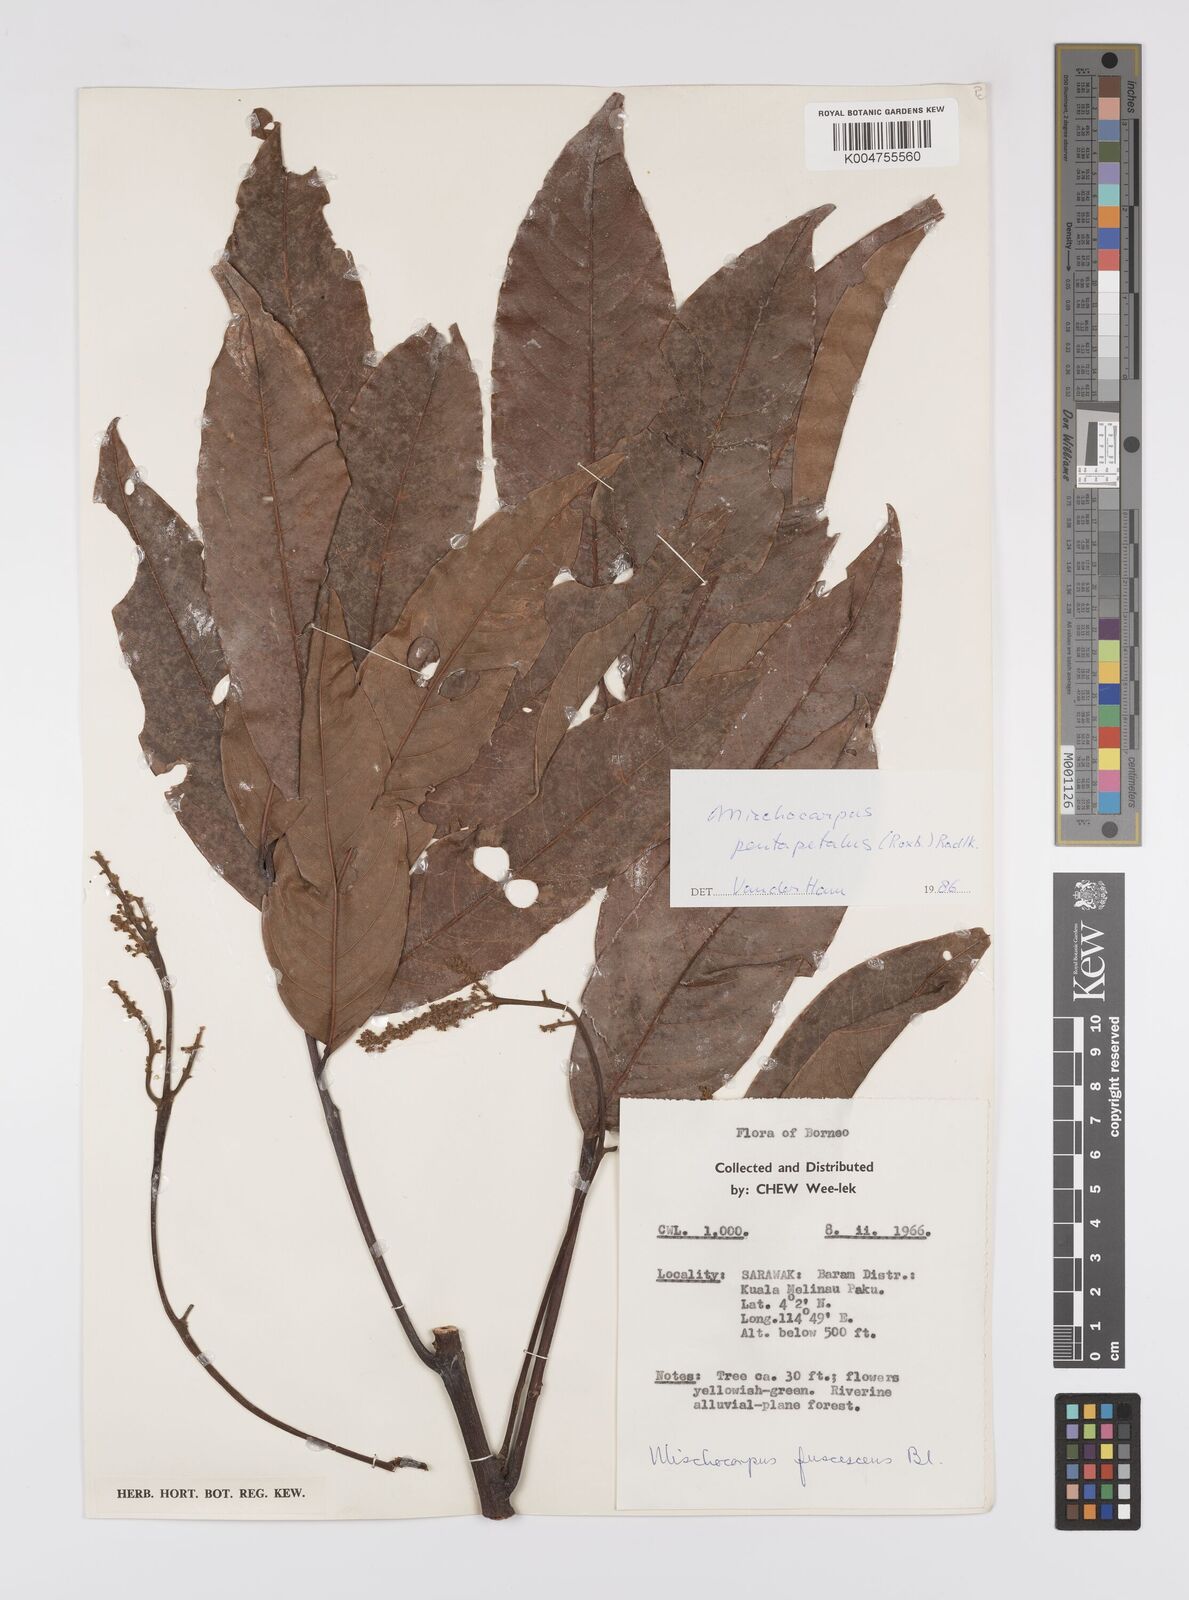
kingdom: Plantae
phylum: Tracheophyta
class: Magnoliopsida
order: Sapindales
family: Sapindaceae
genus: Mischocarpus
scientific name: Mischocarpus pentapetalus
